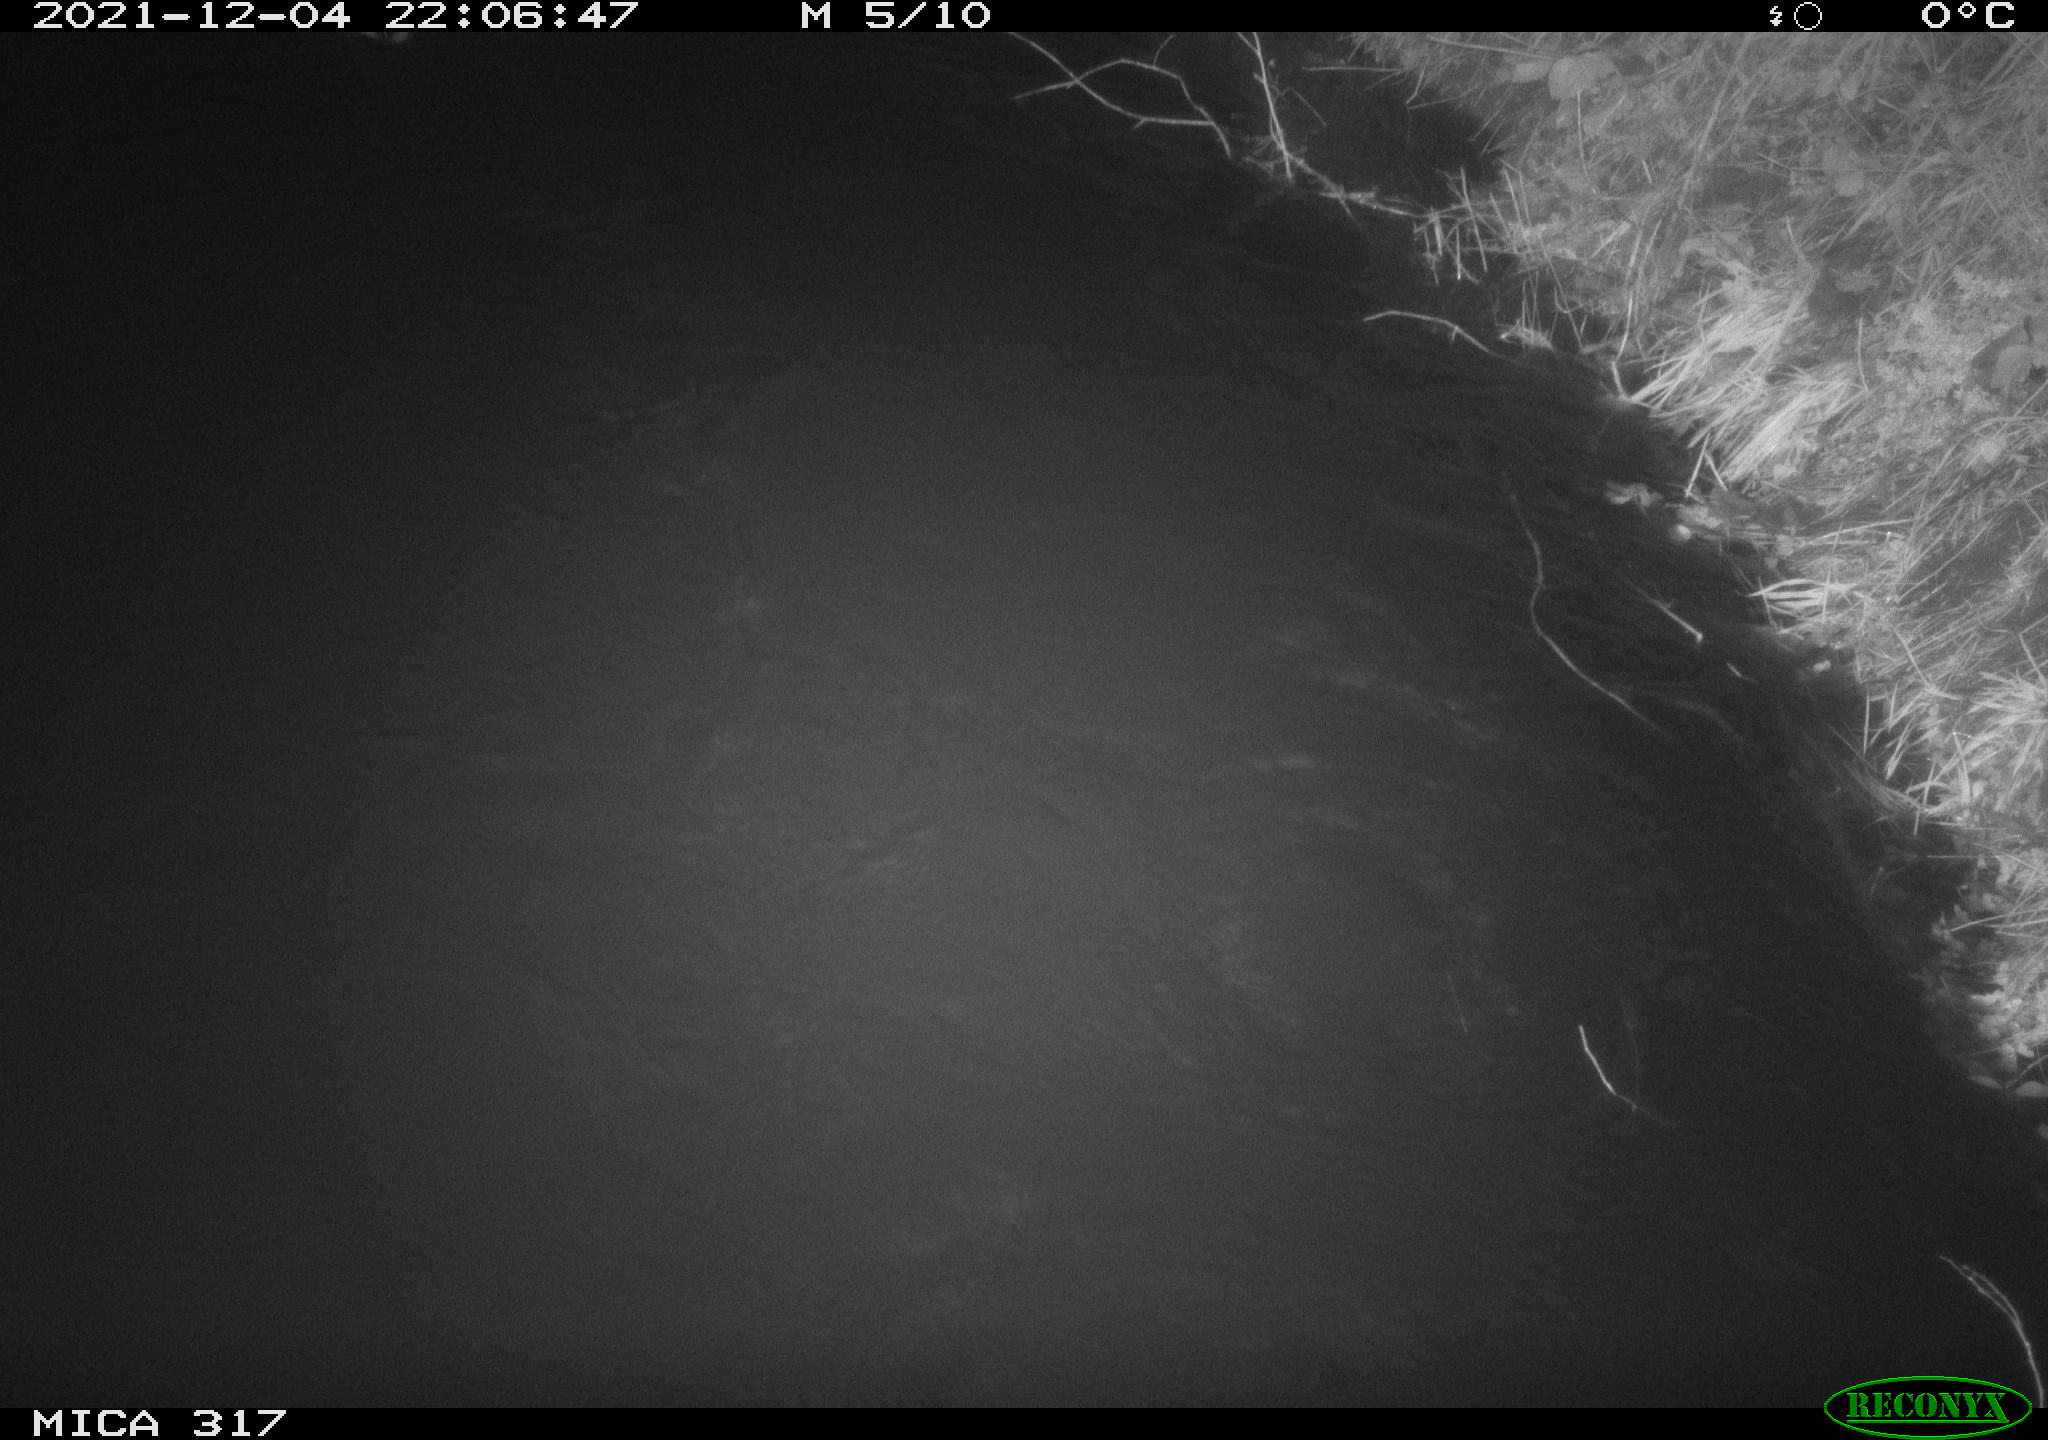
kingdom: Animalia
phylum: Chordata
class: Aves
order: Anseriformes
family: Anatidae
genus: Anas
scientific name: Anas platyrhynchos
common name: Mallard
